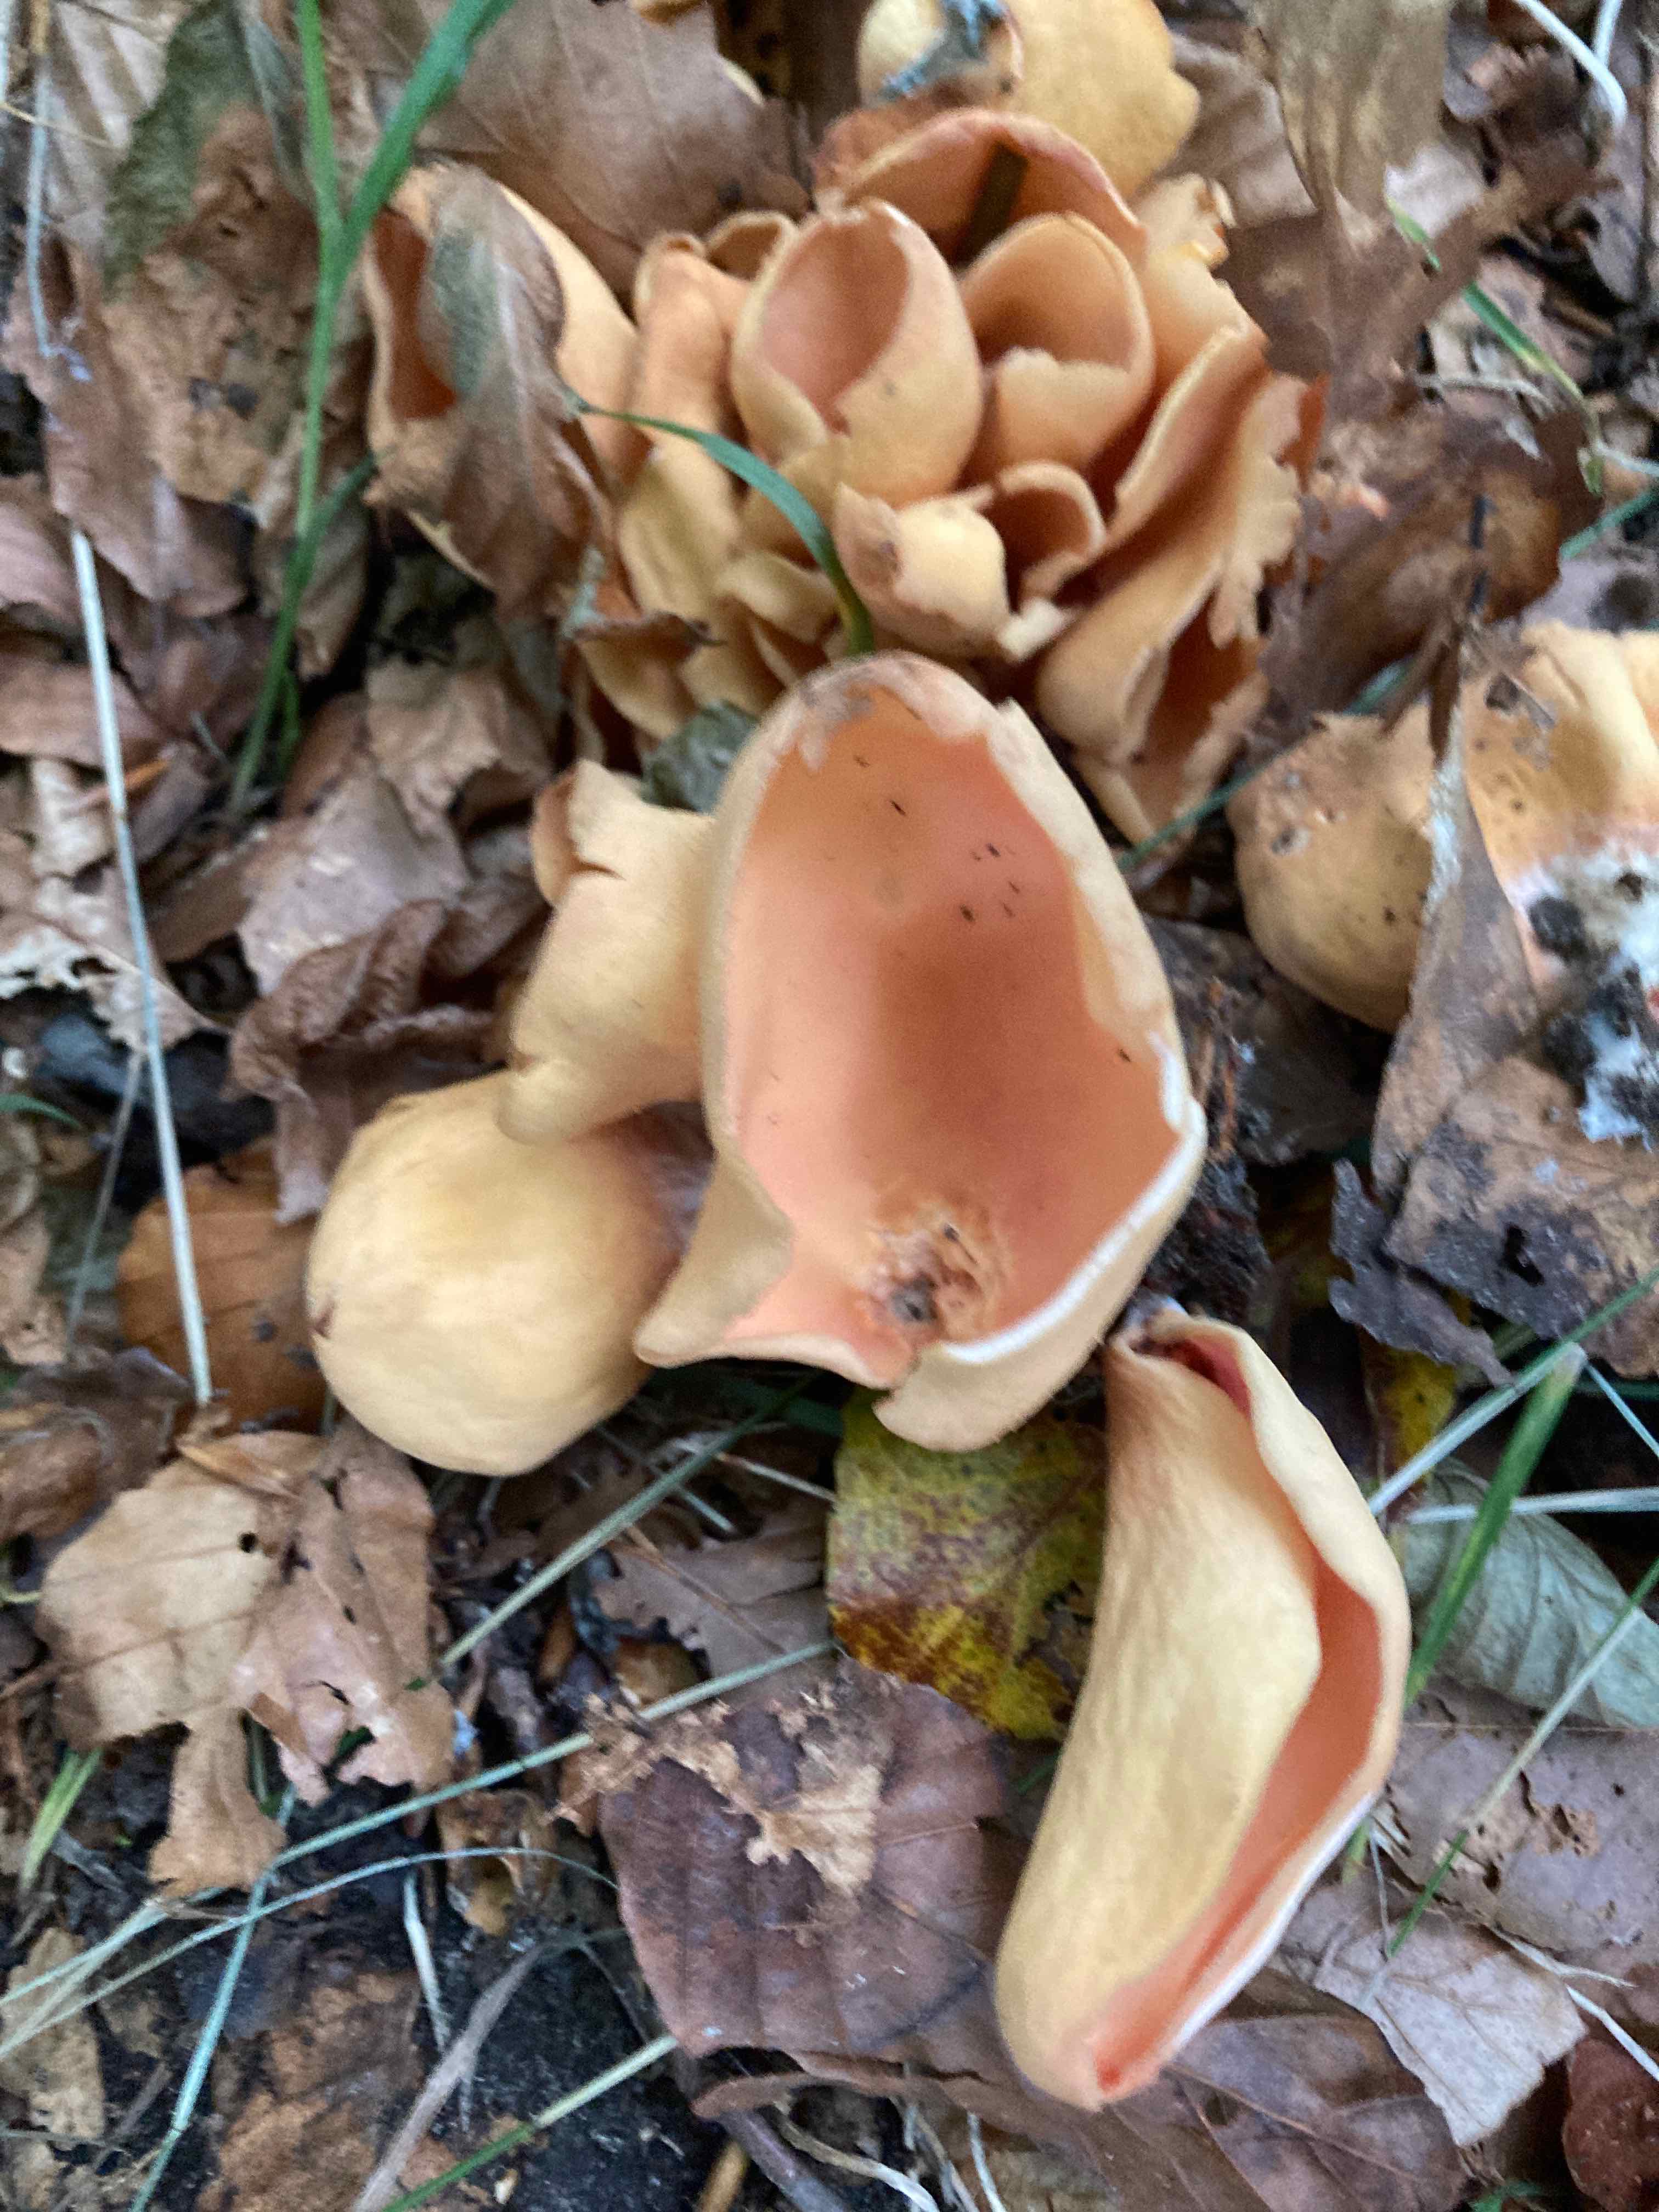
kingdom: Fungi
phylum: Ascomycota
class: Pezizomycetes
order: Pezizales
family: Otideaceae
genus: Otidea
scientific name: Otidea onotica
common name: æsel-ørebæger
